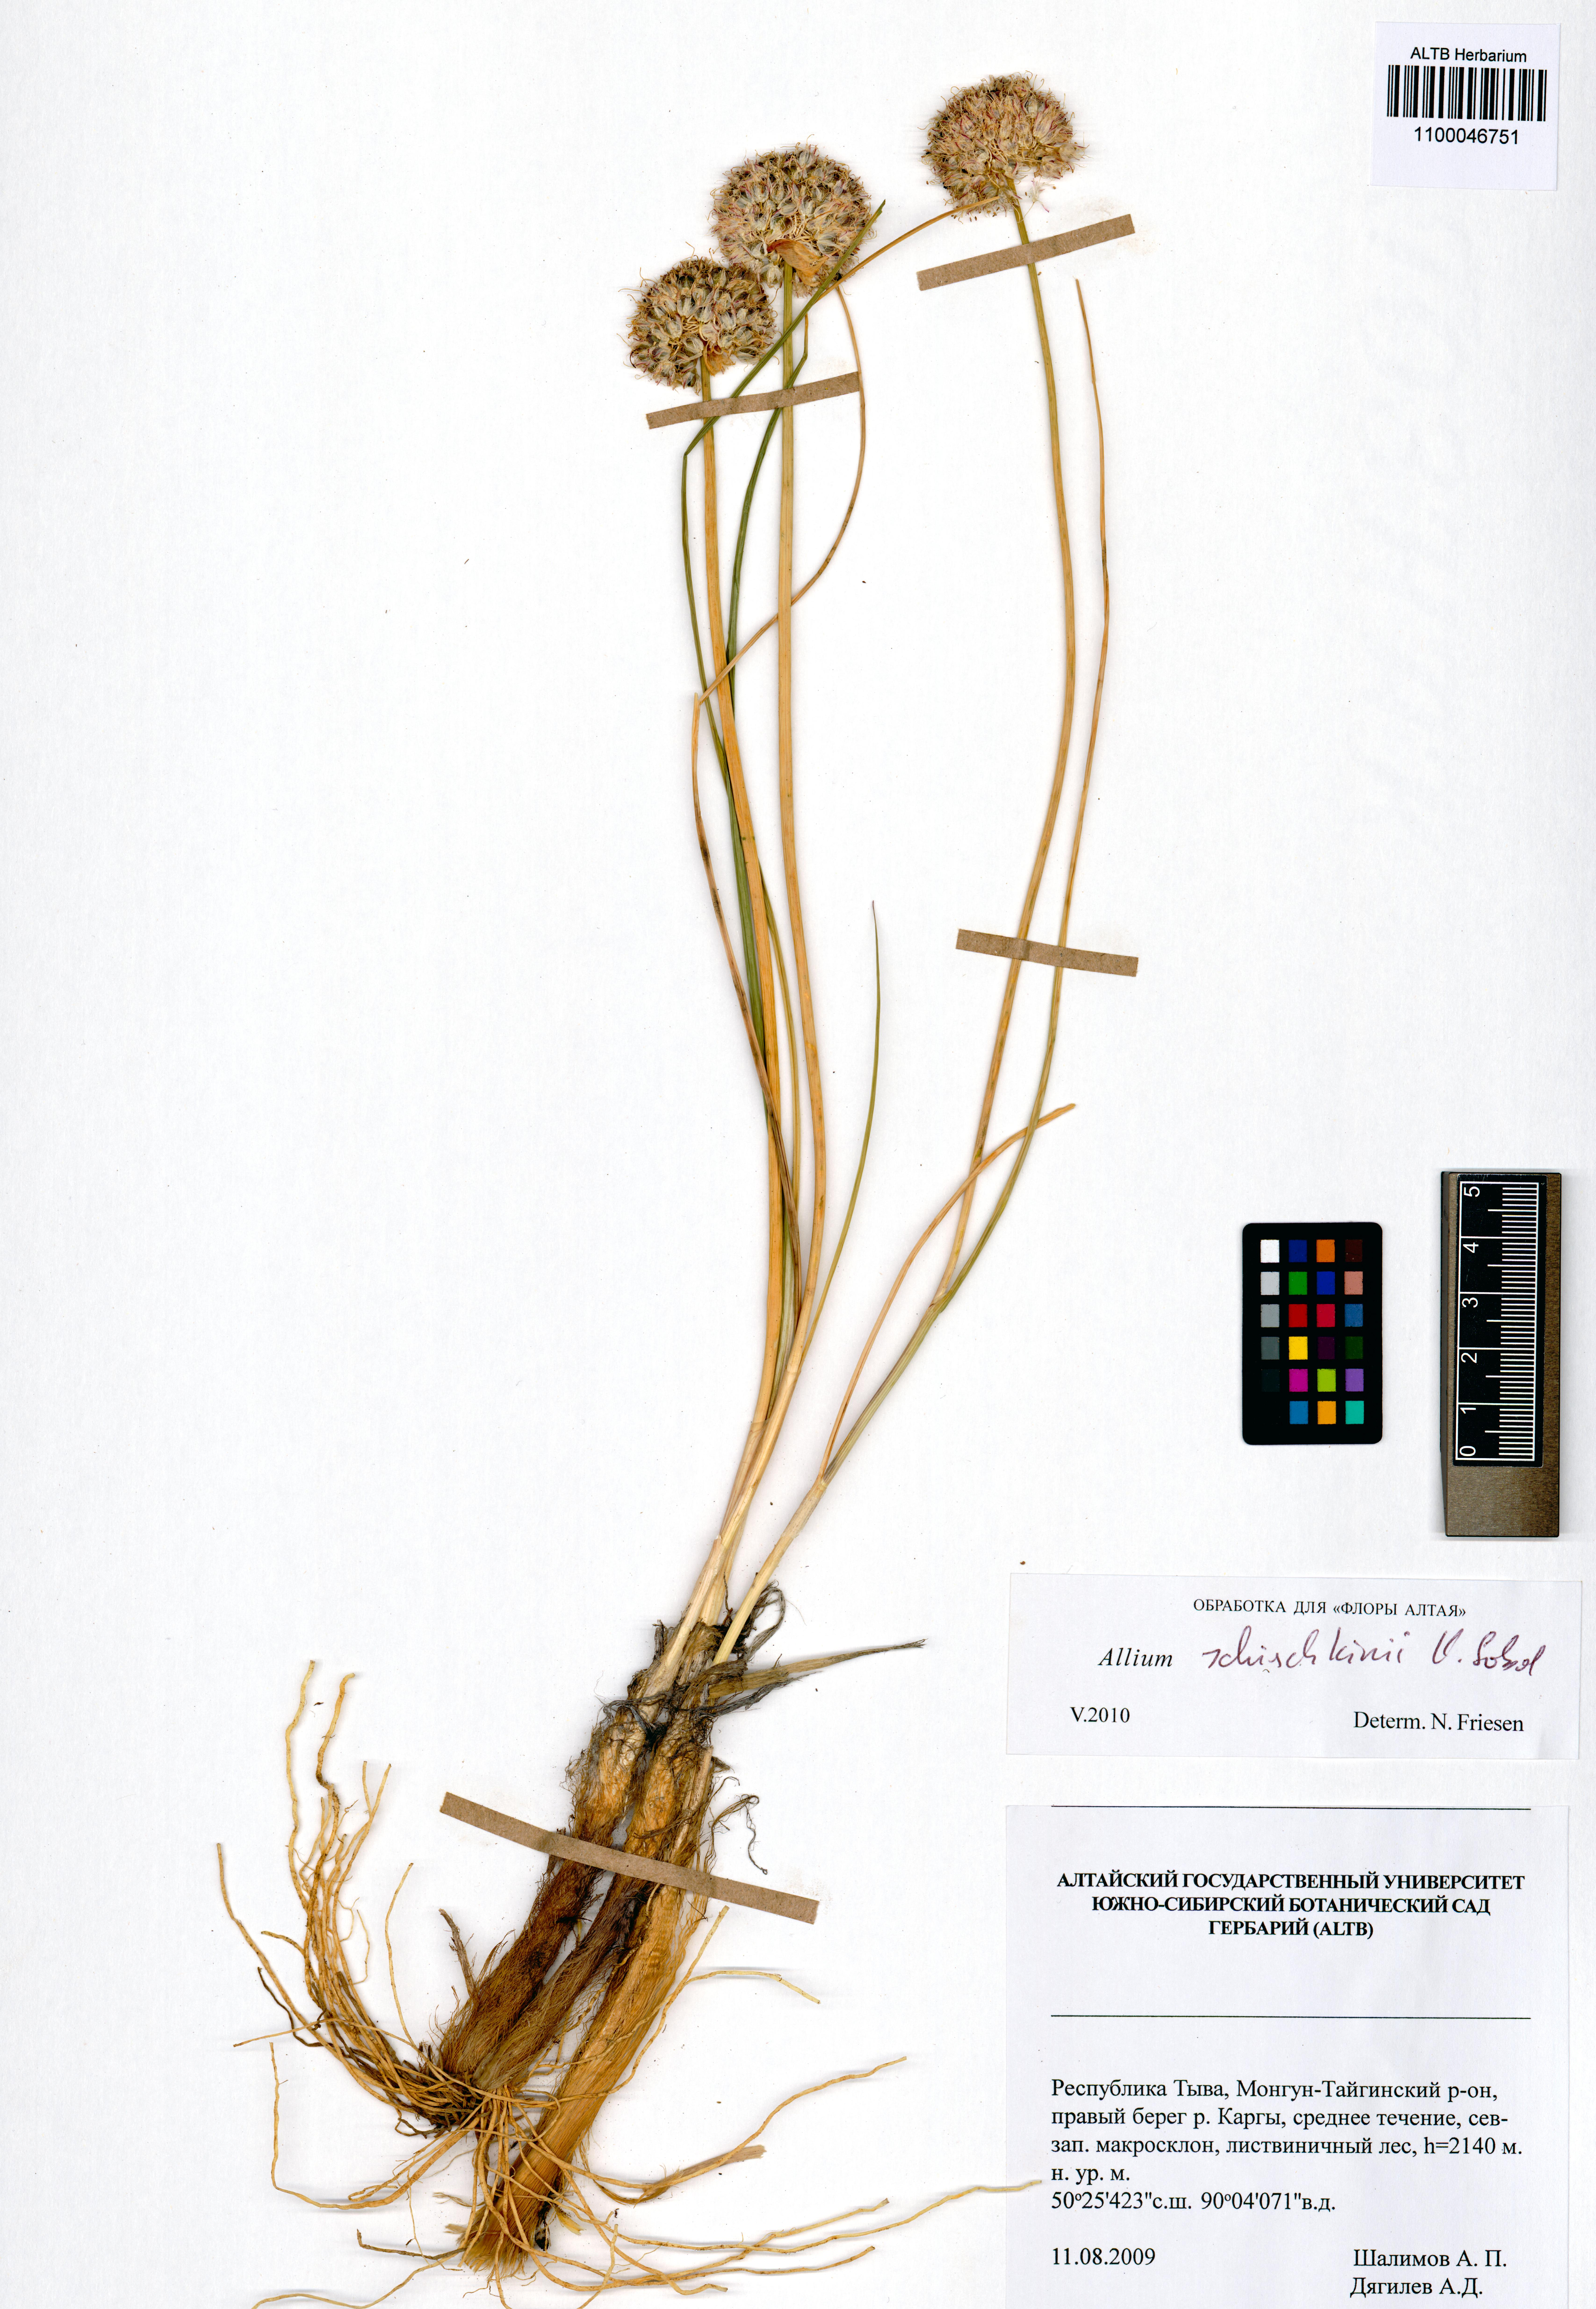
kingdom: Plantae
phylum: Tracheophyta
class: Liliopsida
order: Asparagales
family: Amaryllidaceae
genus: Allium
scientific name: Allium schischkinii
